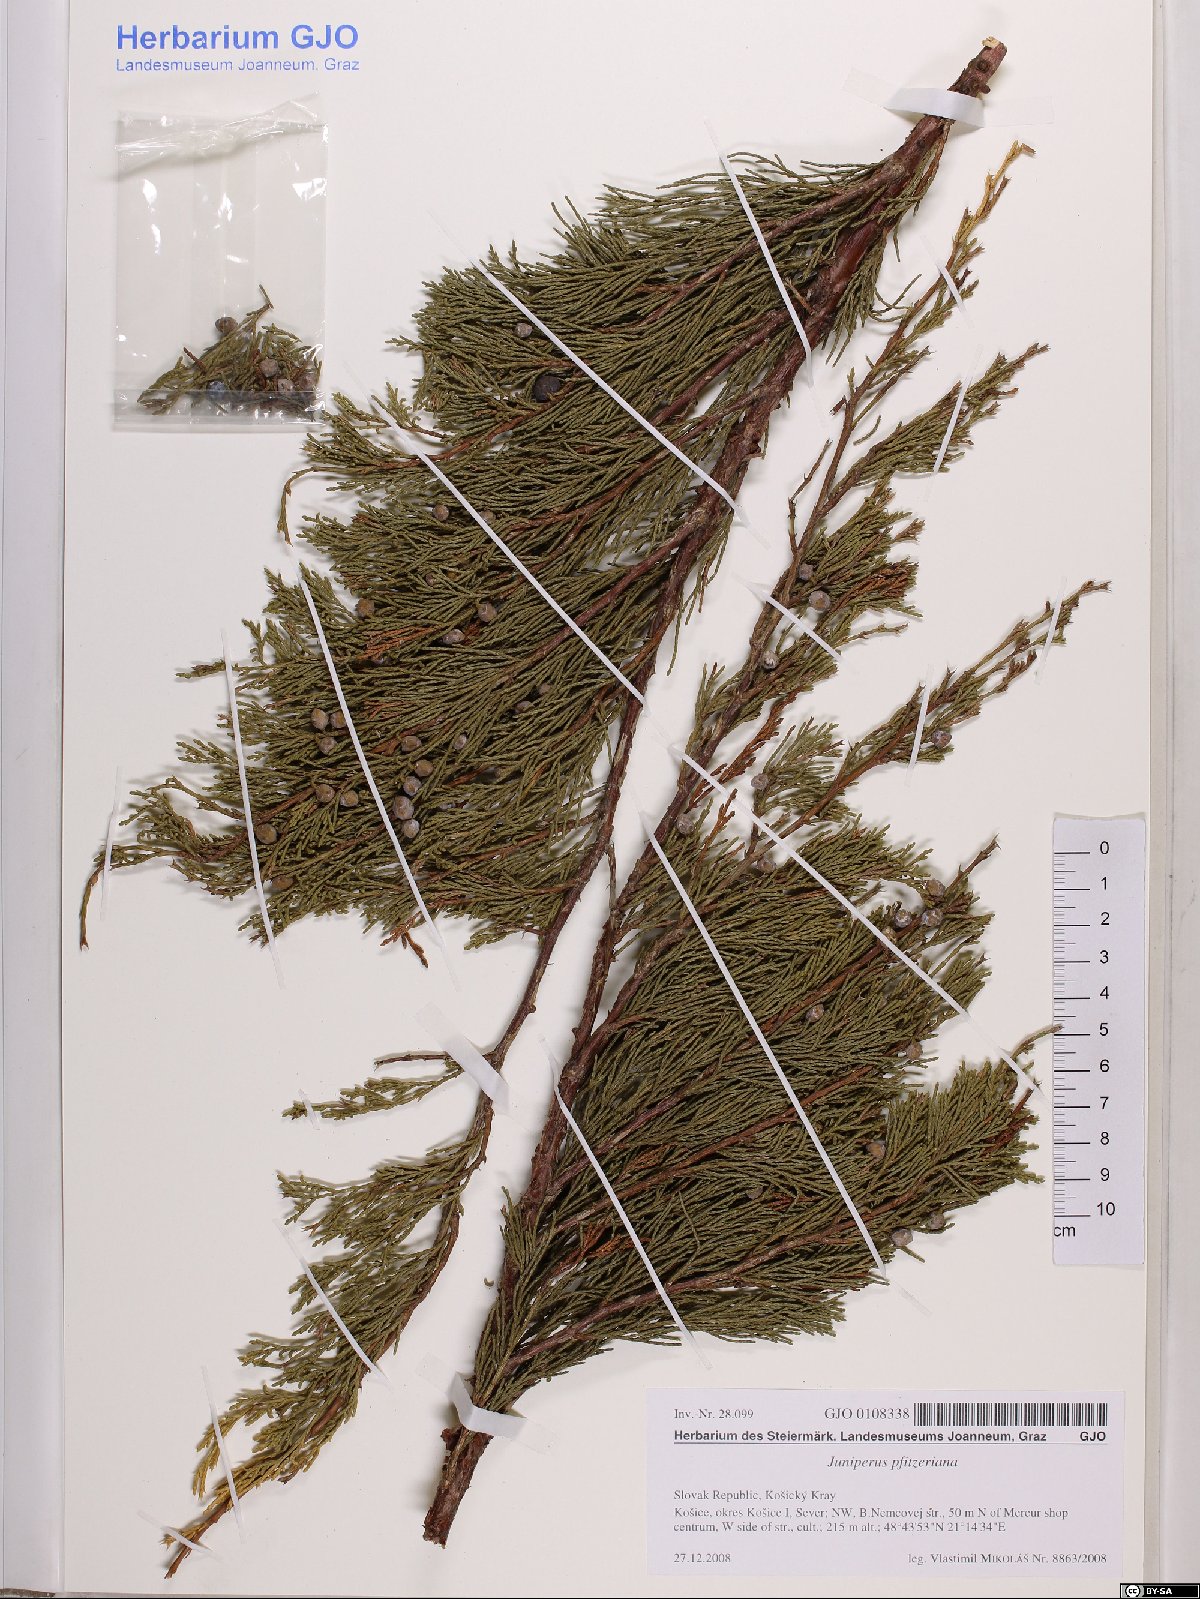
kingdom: Plantae
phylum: Tracheophyta
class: Pinopsida
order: Pinales
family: Cupressaceae
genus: Juniperus
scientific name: Juniperus pfitzeriana
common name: Pfitzer juniper
